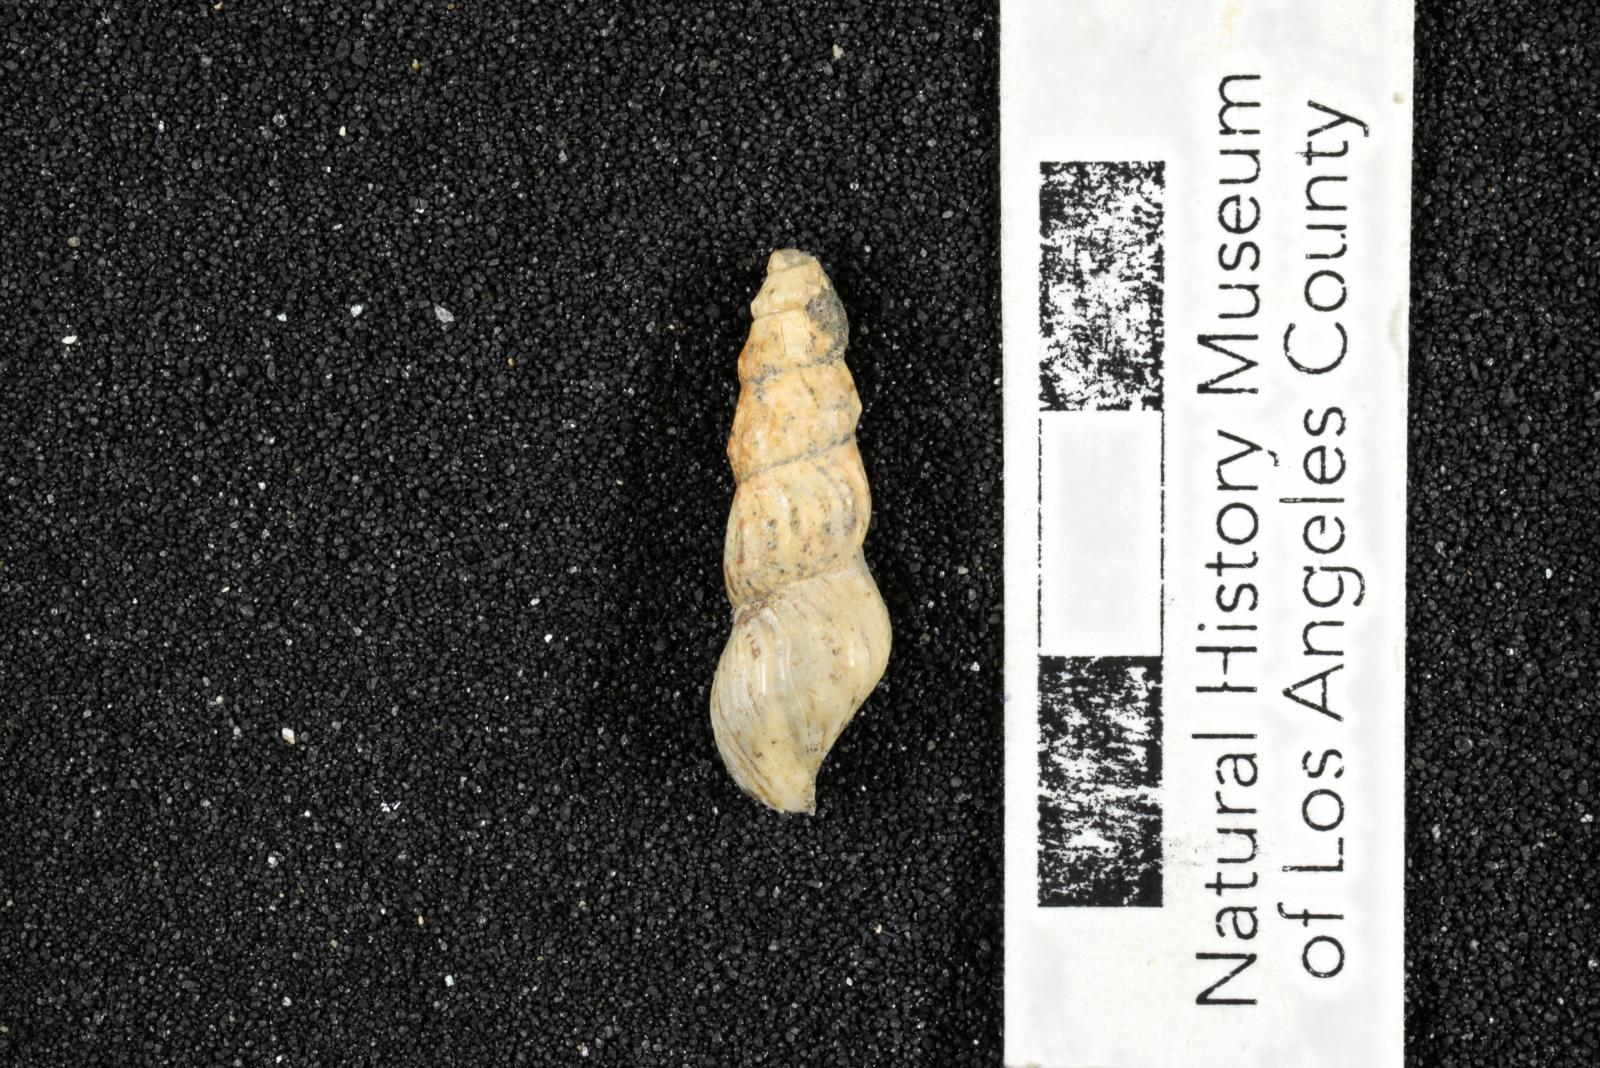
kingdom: Animalia
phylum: Mollusca
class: Gastropoda
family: Potamididae
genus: Potamides
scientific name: Potamides tenuis
